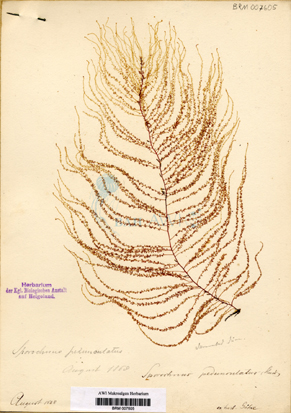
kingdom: Chromista
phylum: Ochrophyta
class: Phaeophyceae
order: Sporochnales
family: Sporochnaceae
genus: Sporochnus
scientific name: Sporochnus pedunculatus
